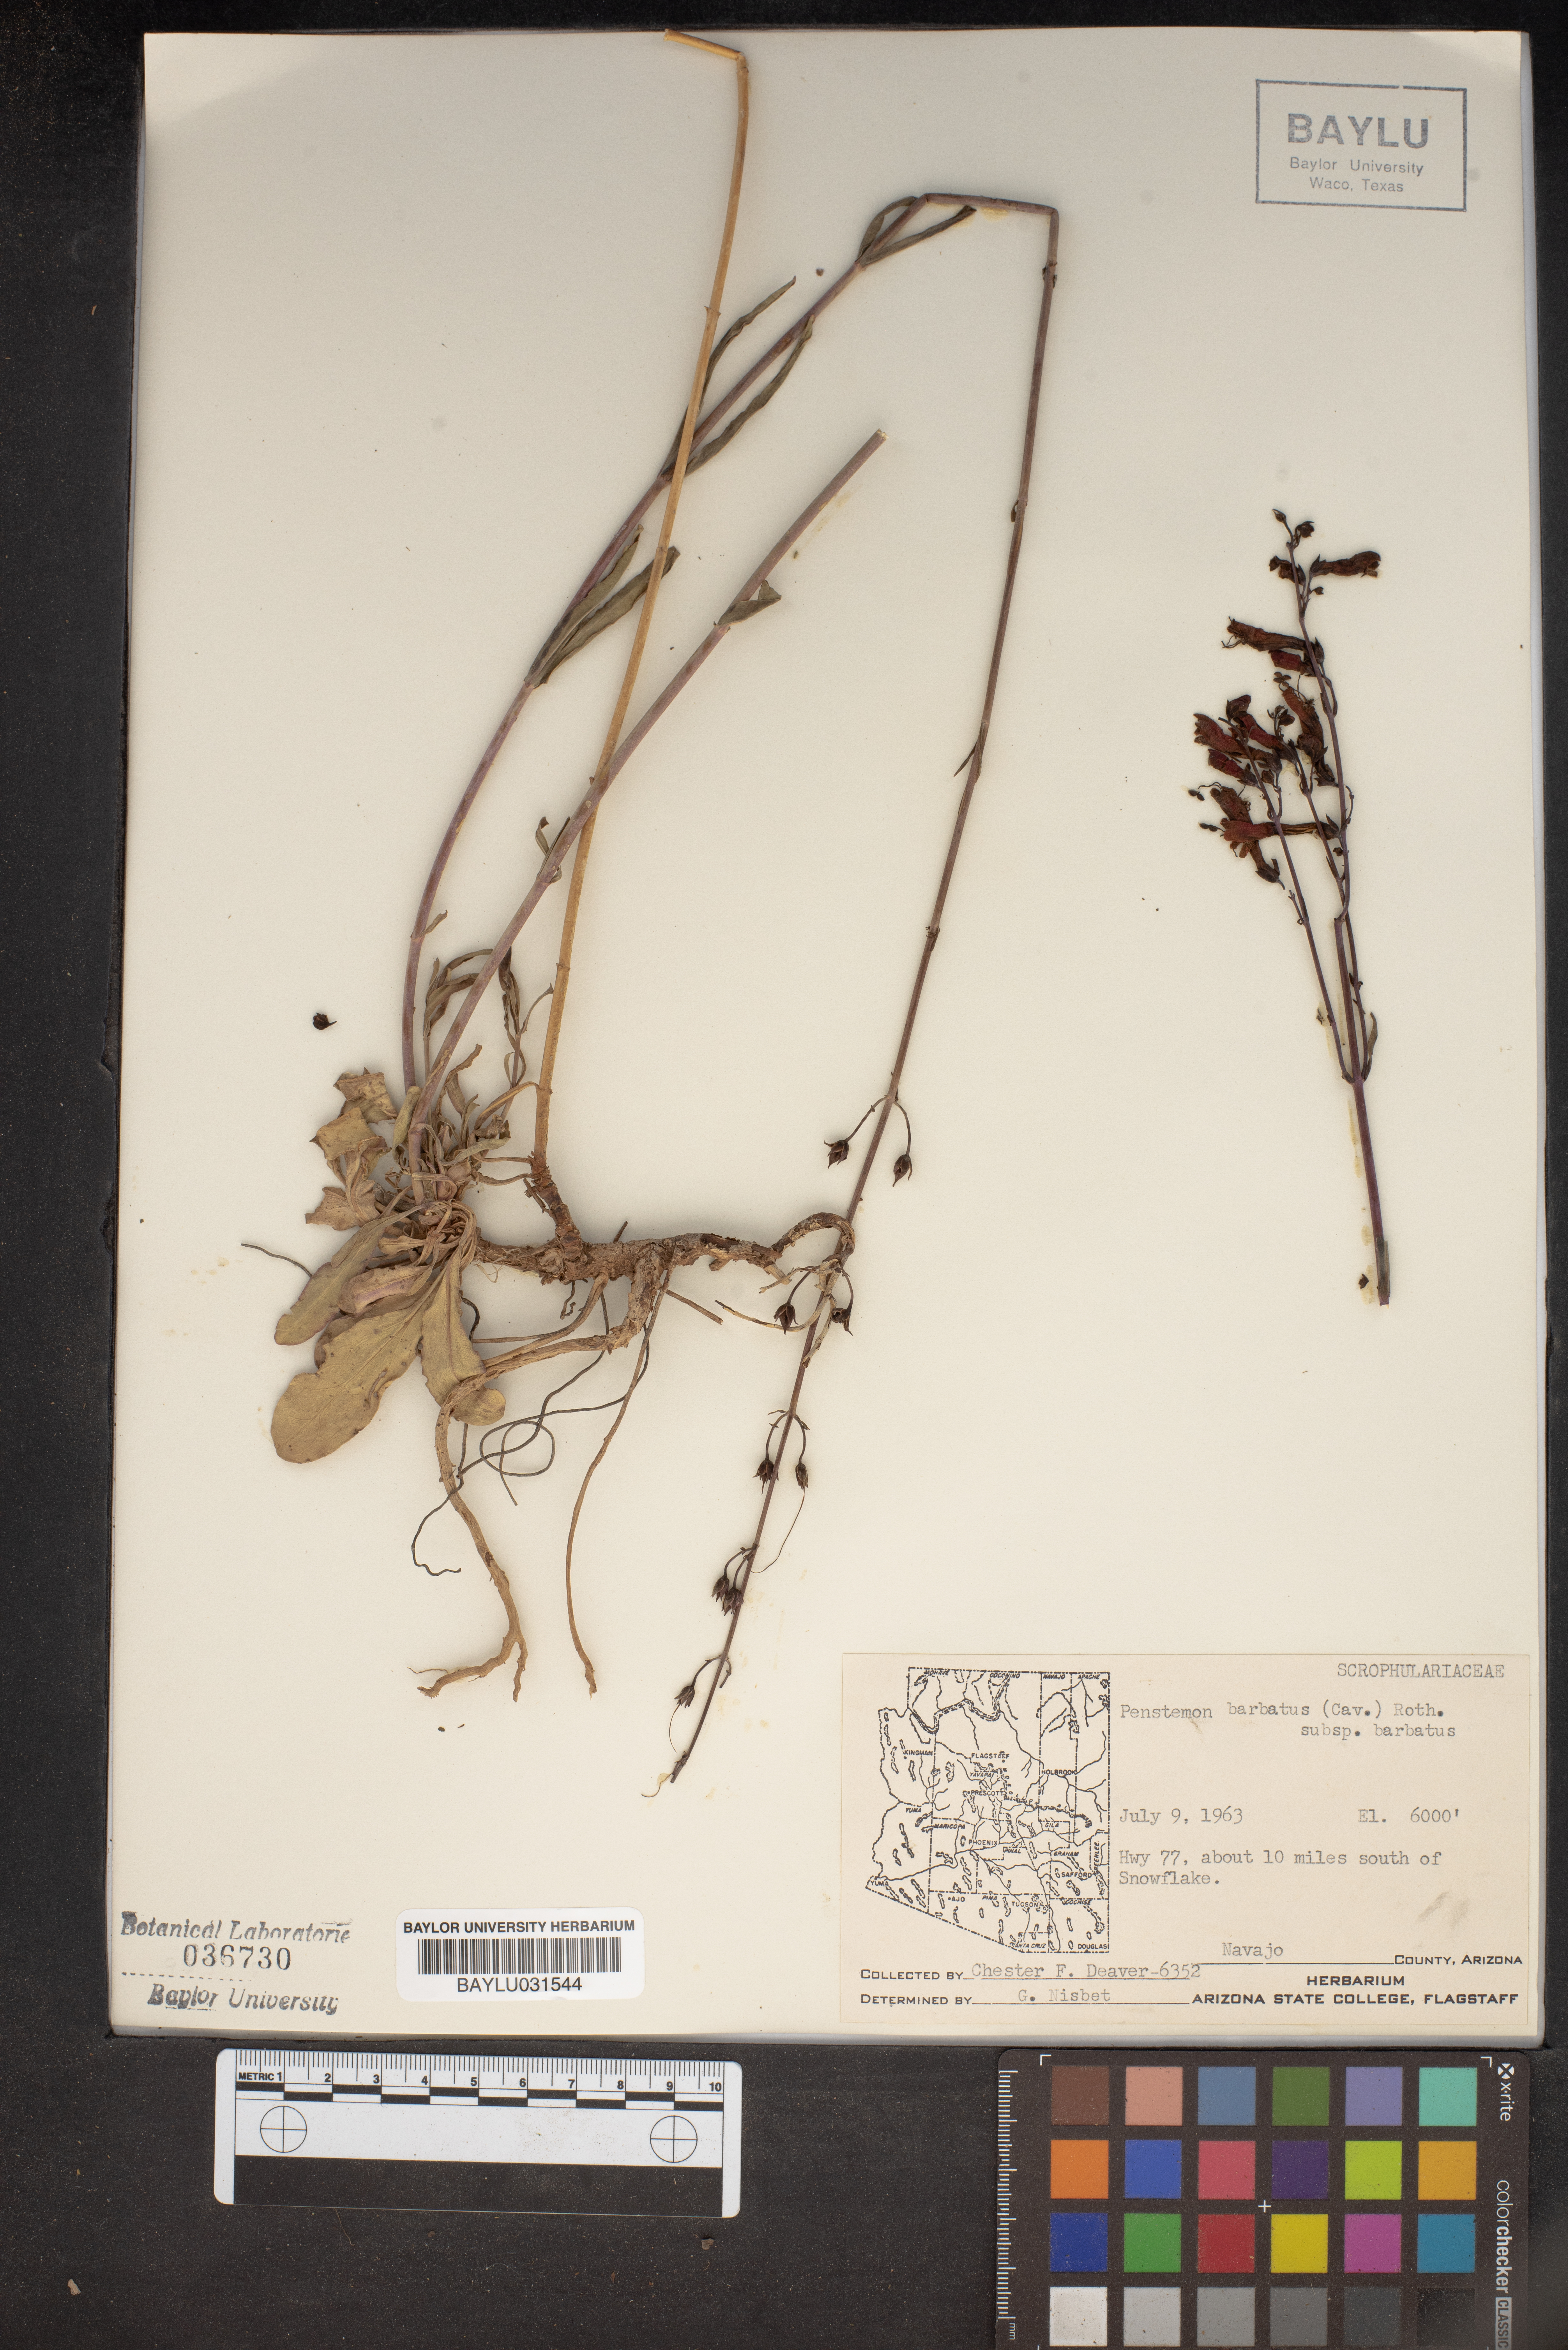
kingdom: Plantae
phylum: Tracheophyta
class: Magnoliopsida
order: Lamiales
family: Plantaginaceae
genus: Penstemon
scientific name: Penstemon barbatus
